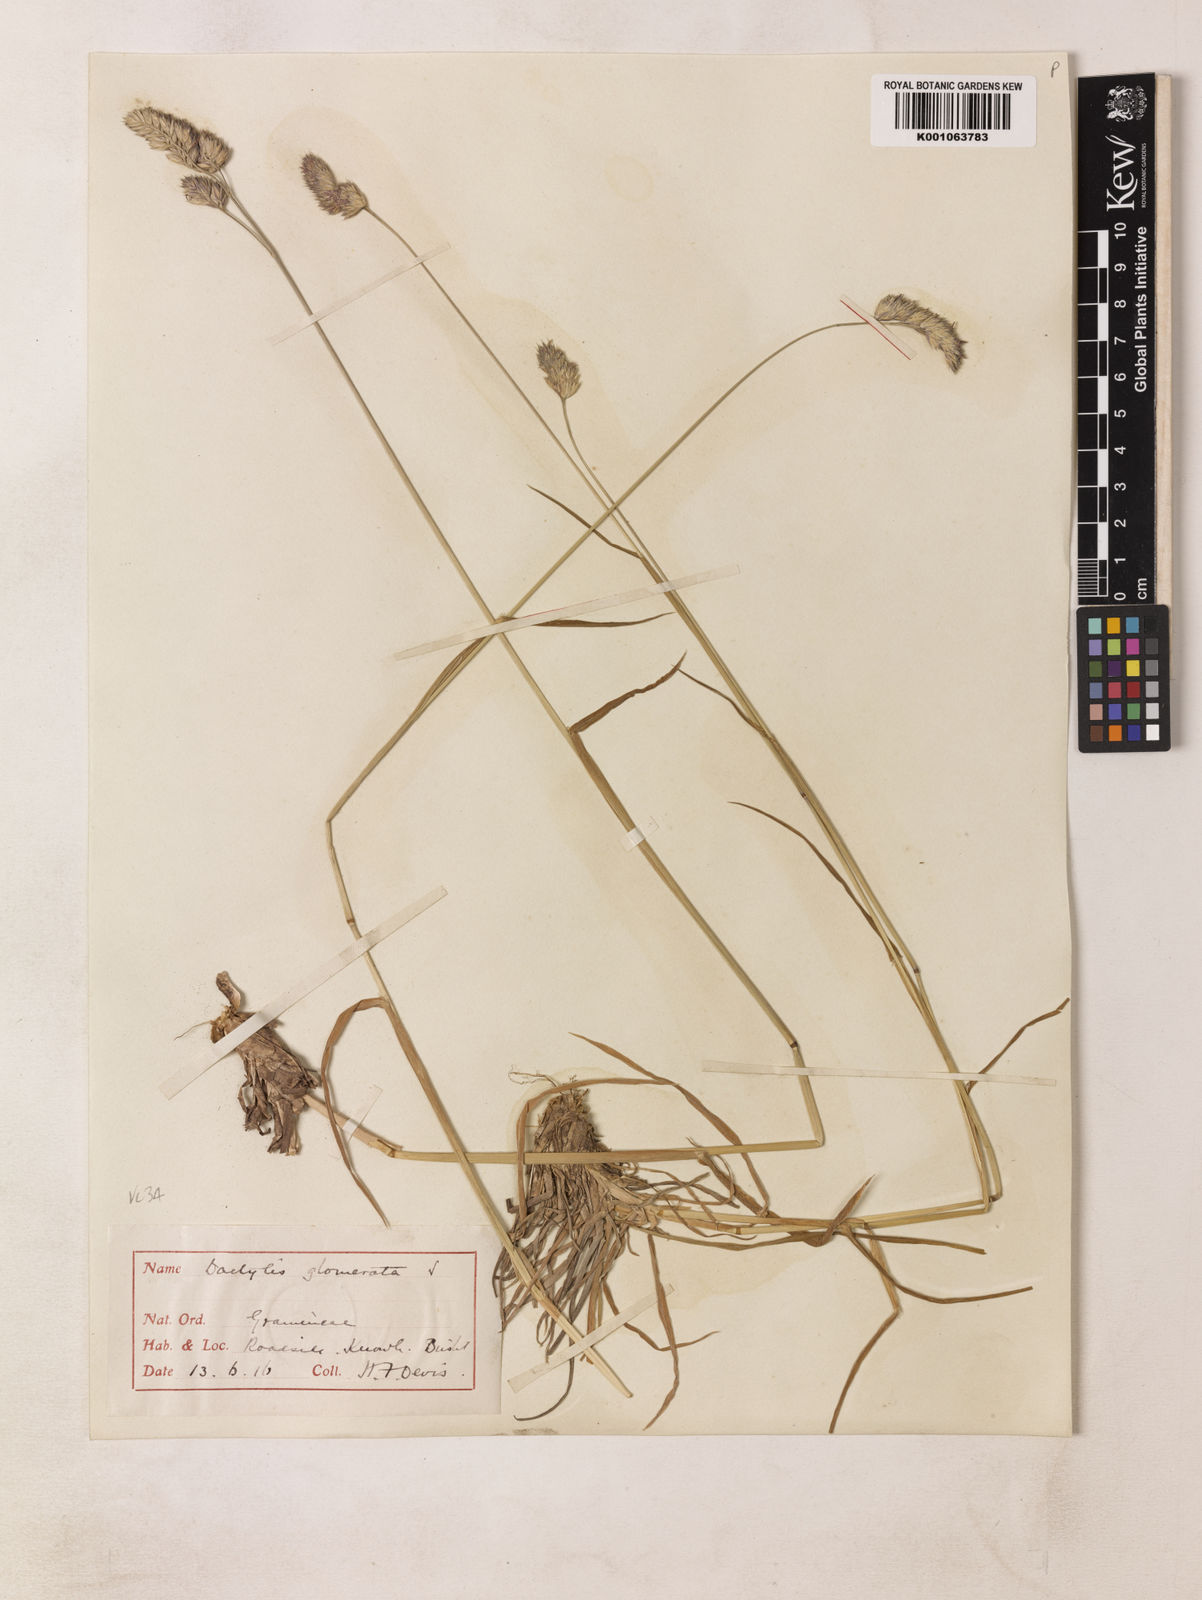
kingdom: Plantae
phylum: Tracheophyta
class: Liliopsida
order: Poales
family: Poaceae
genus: Dactylis
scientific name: Dactylis glomerata
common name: Orchardgrass
